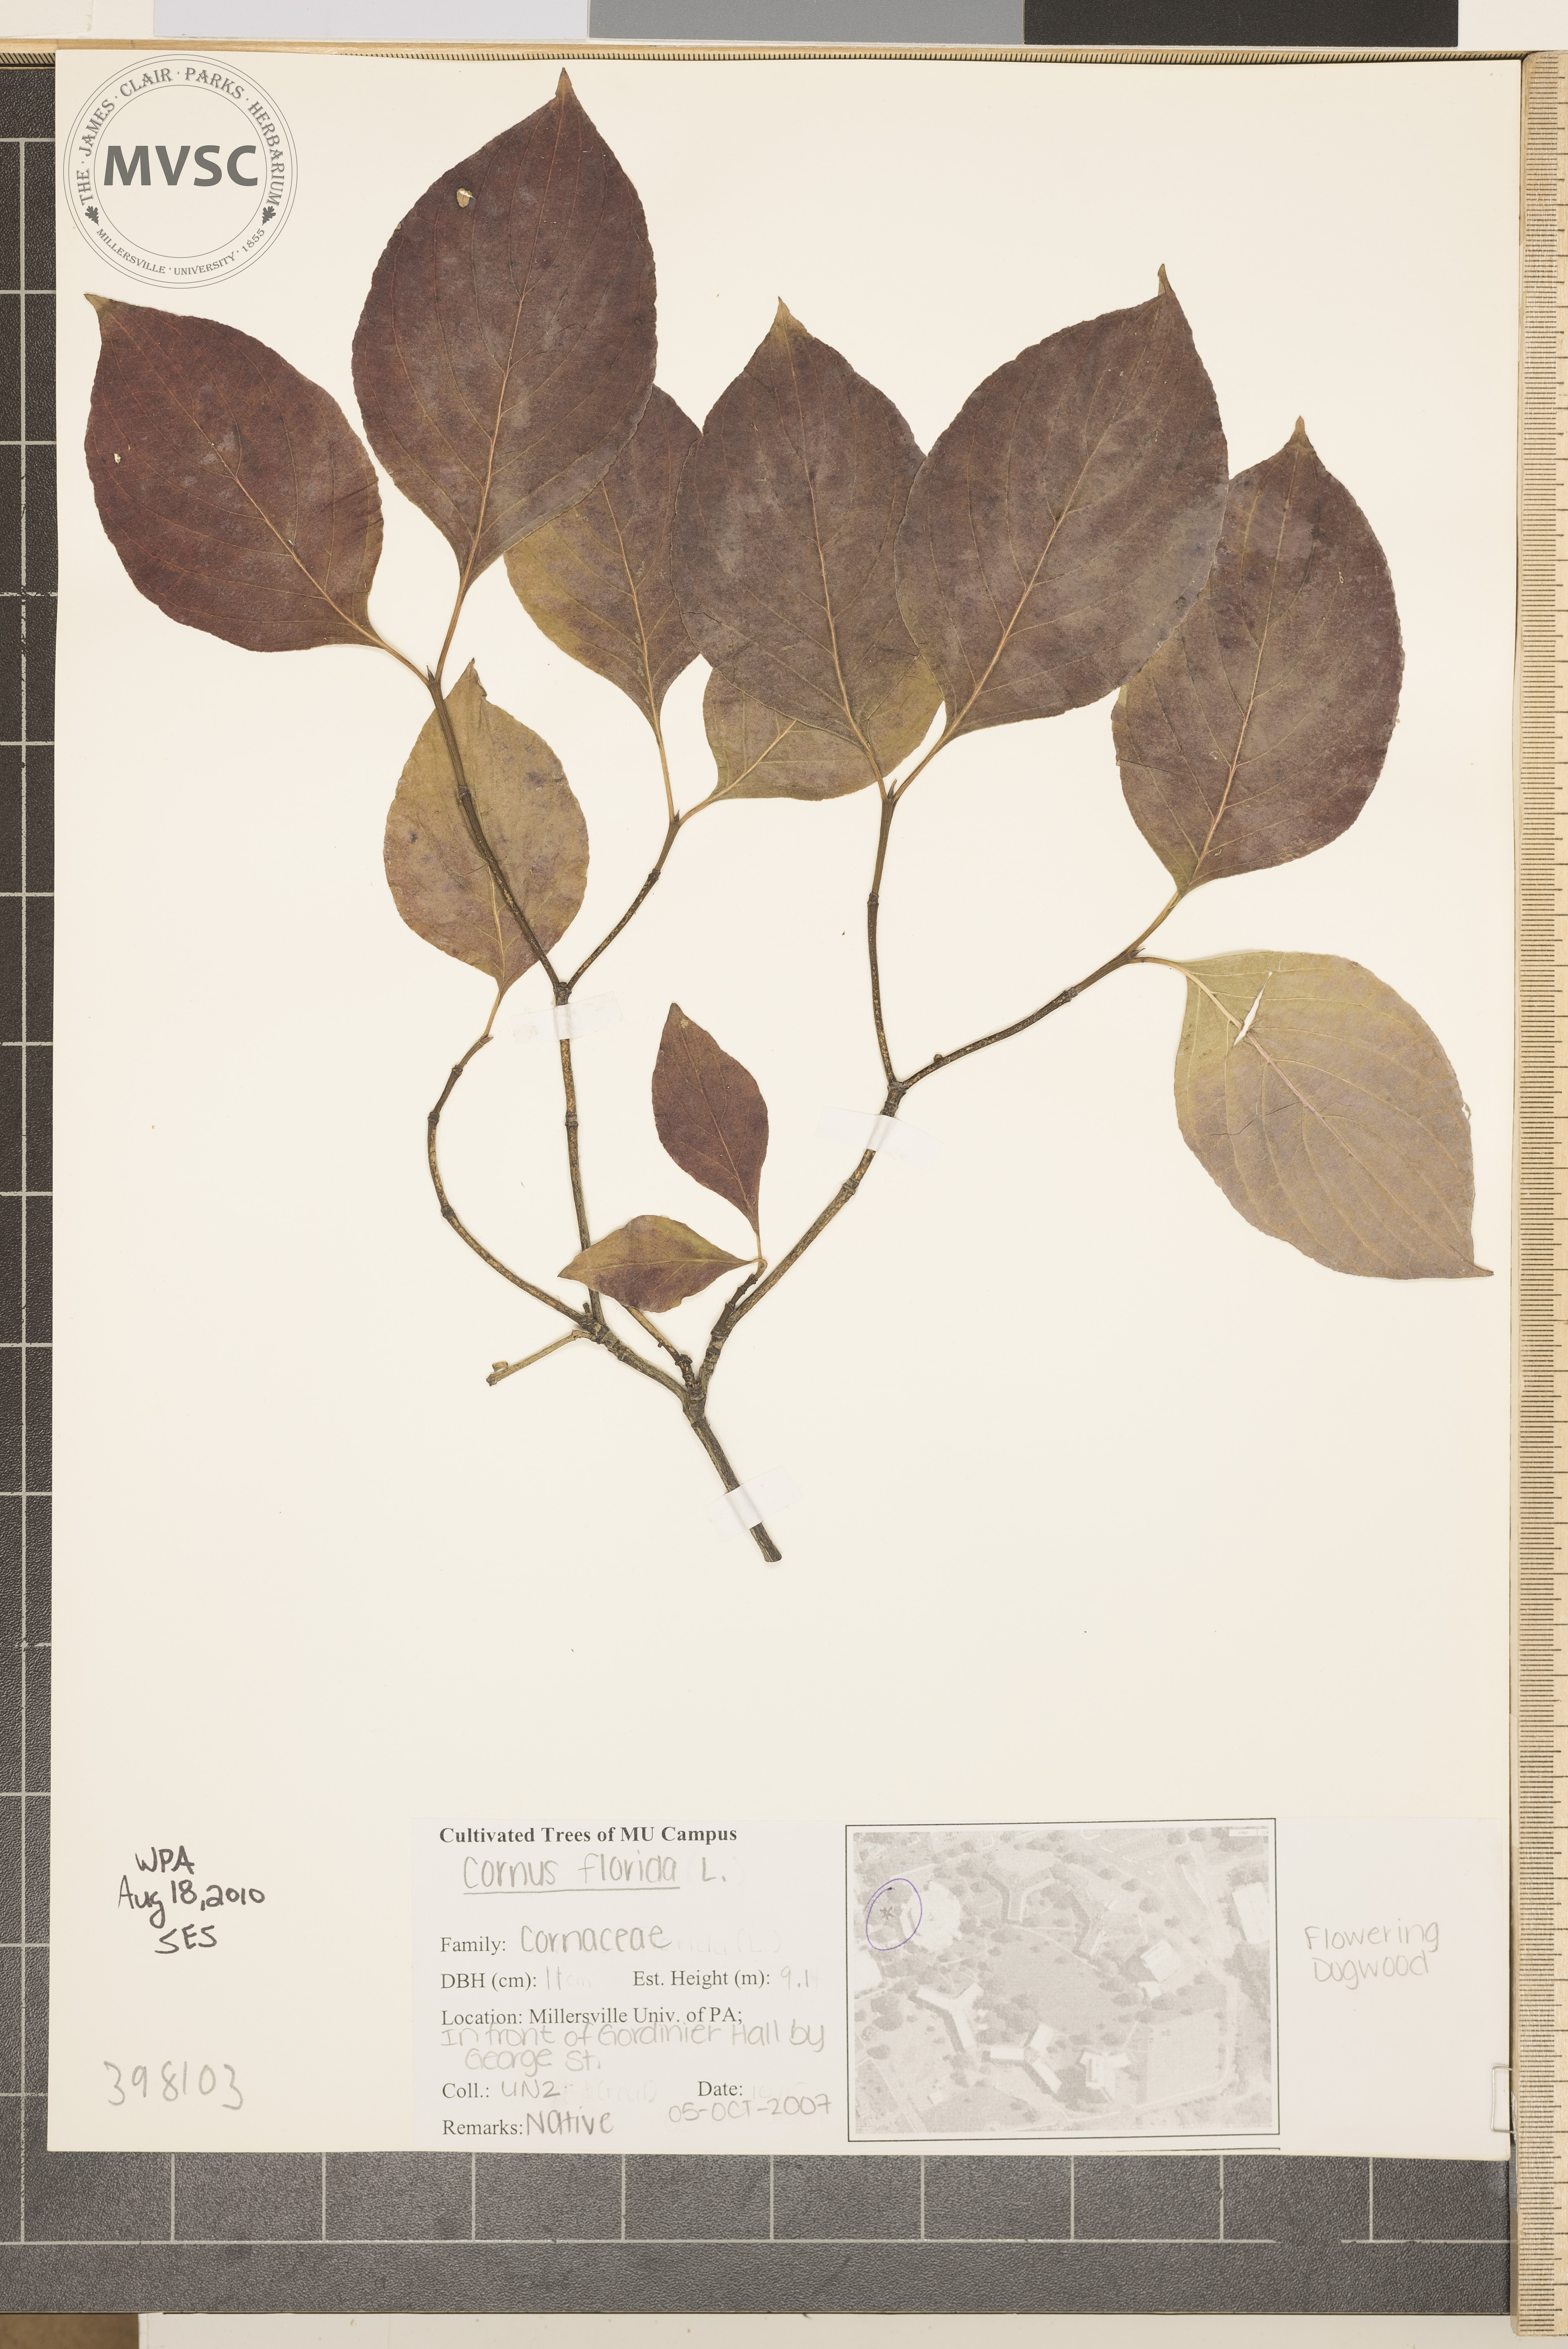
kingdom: Plantae
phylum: Tracheophyta
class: Magnoliopsida
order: Cornales
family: Cornaceae
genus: Cornus
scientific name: Cornus florida
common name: Flowering dogwood
